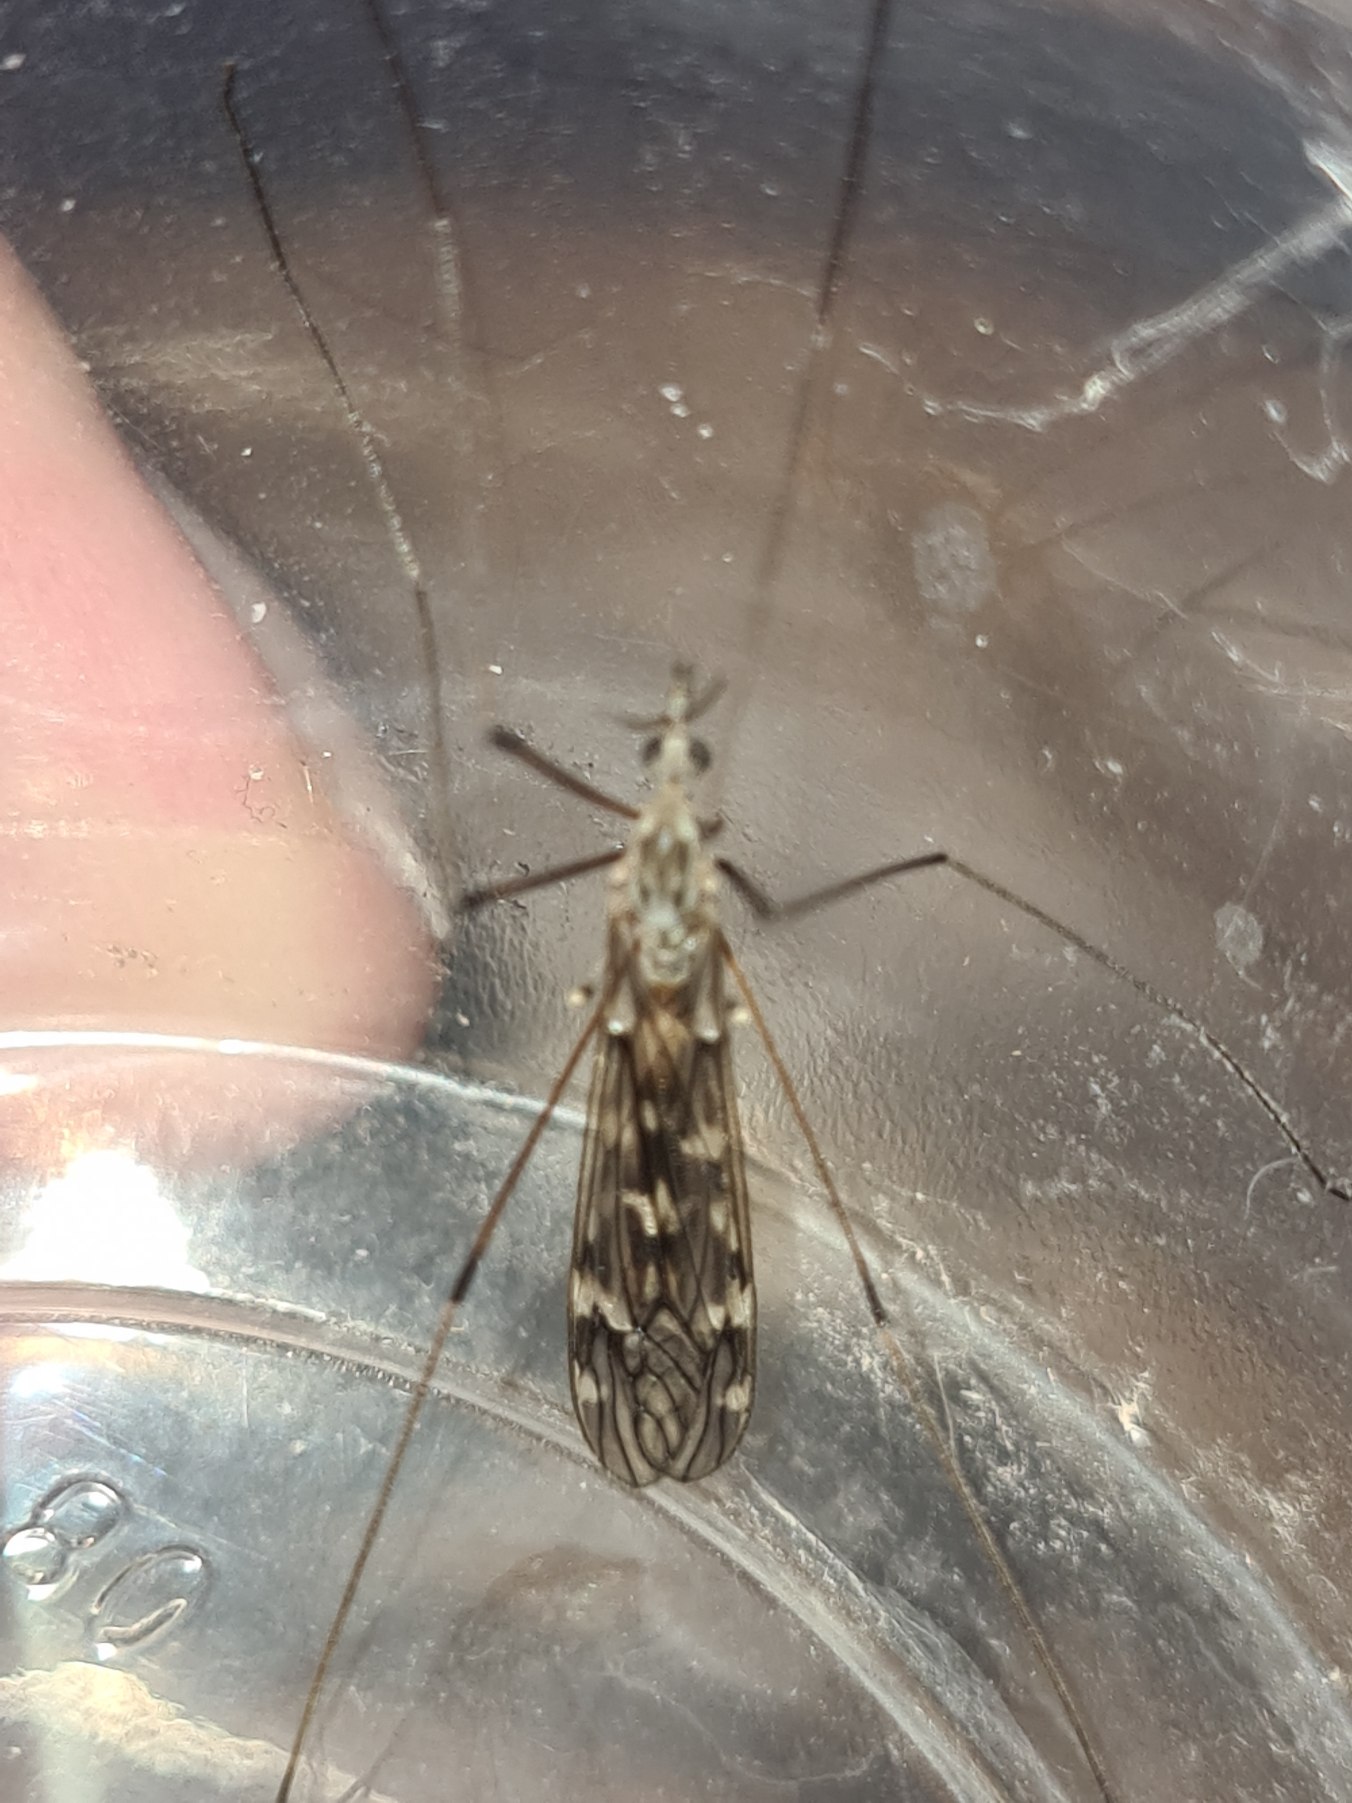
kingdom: Animalia
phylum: Arthropoda
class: Insecta
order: Diptera
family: Tipulidae
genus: Tipula
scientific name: Tipula confusa
